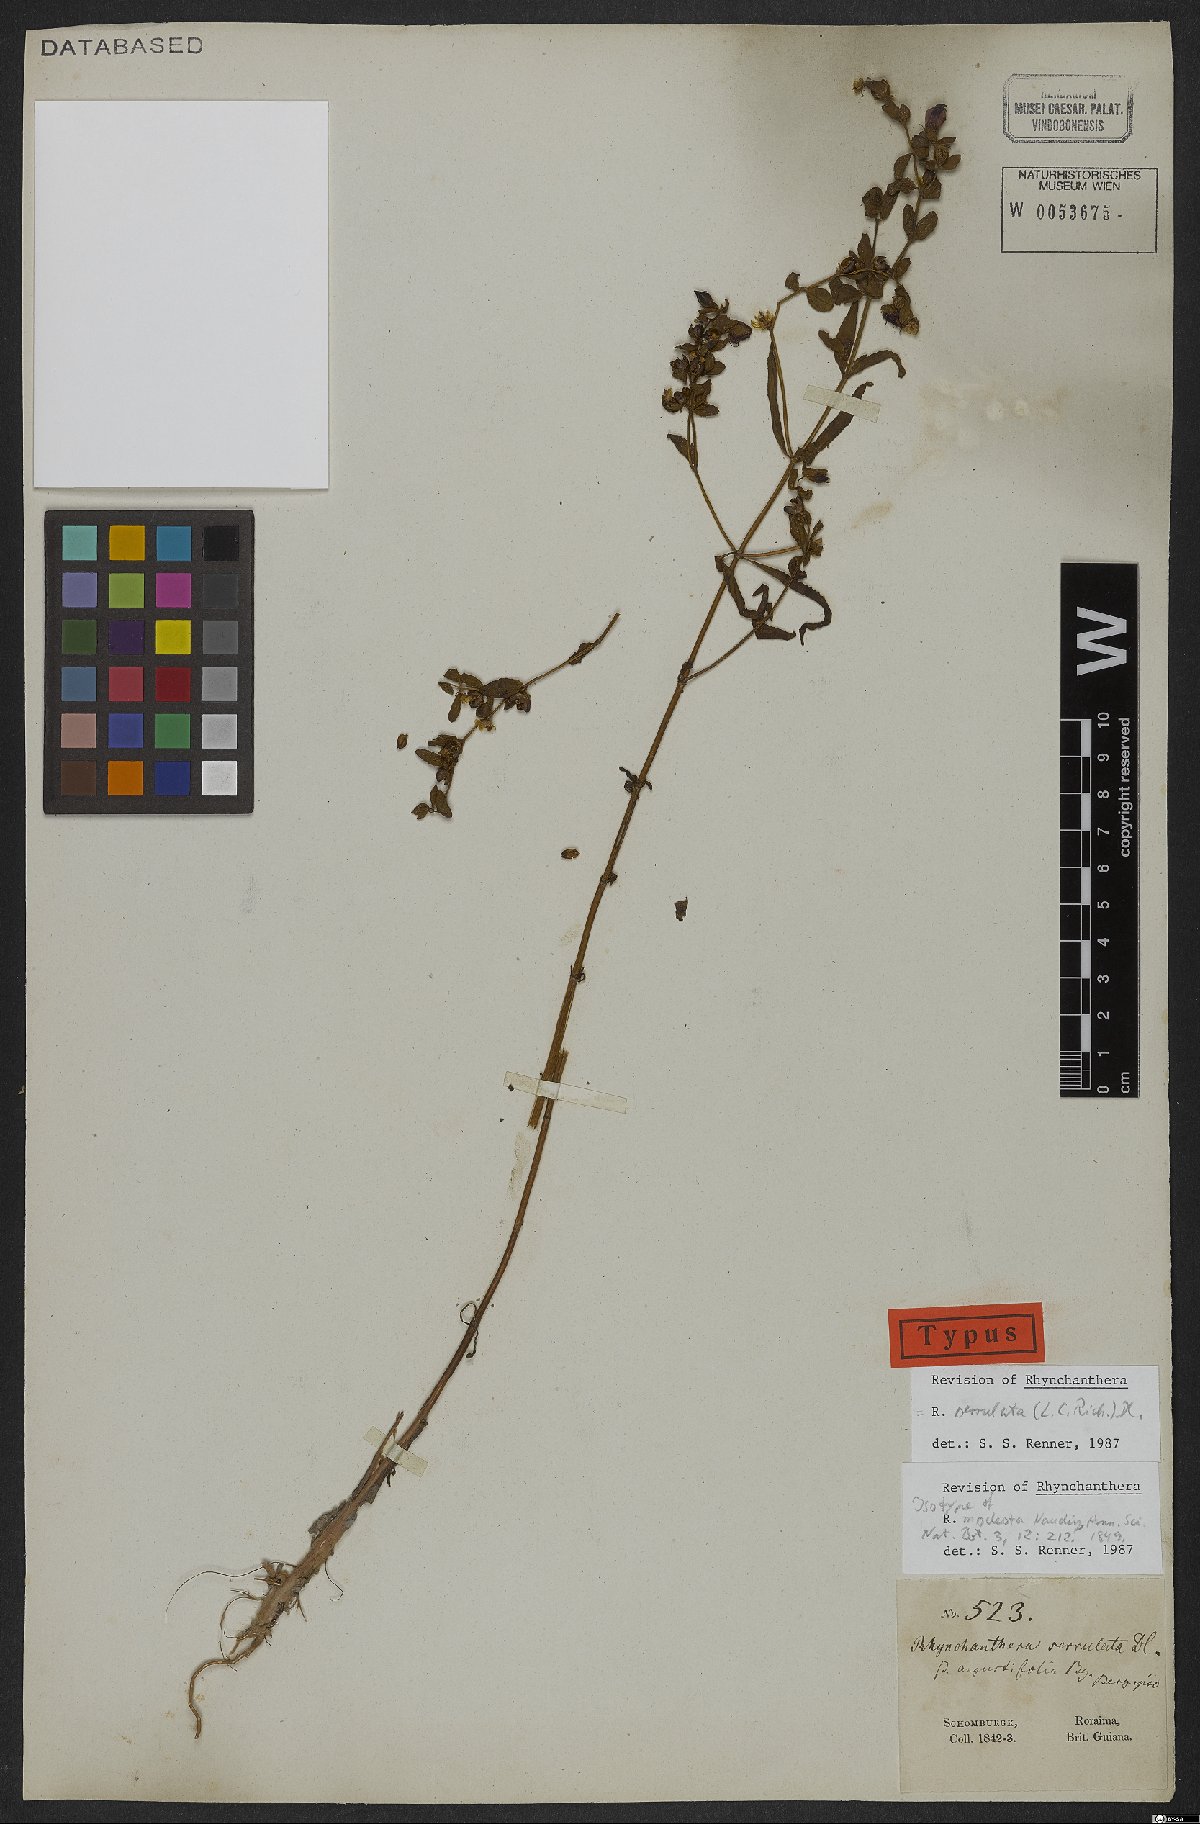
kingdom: Plantae
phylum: Tracheophyta
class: Magnoliopsida
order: Myrtales
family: Melastomataceae
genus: Rhynchanthera
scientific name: Rhynchanthera serrulata
